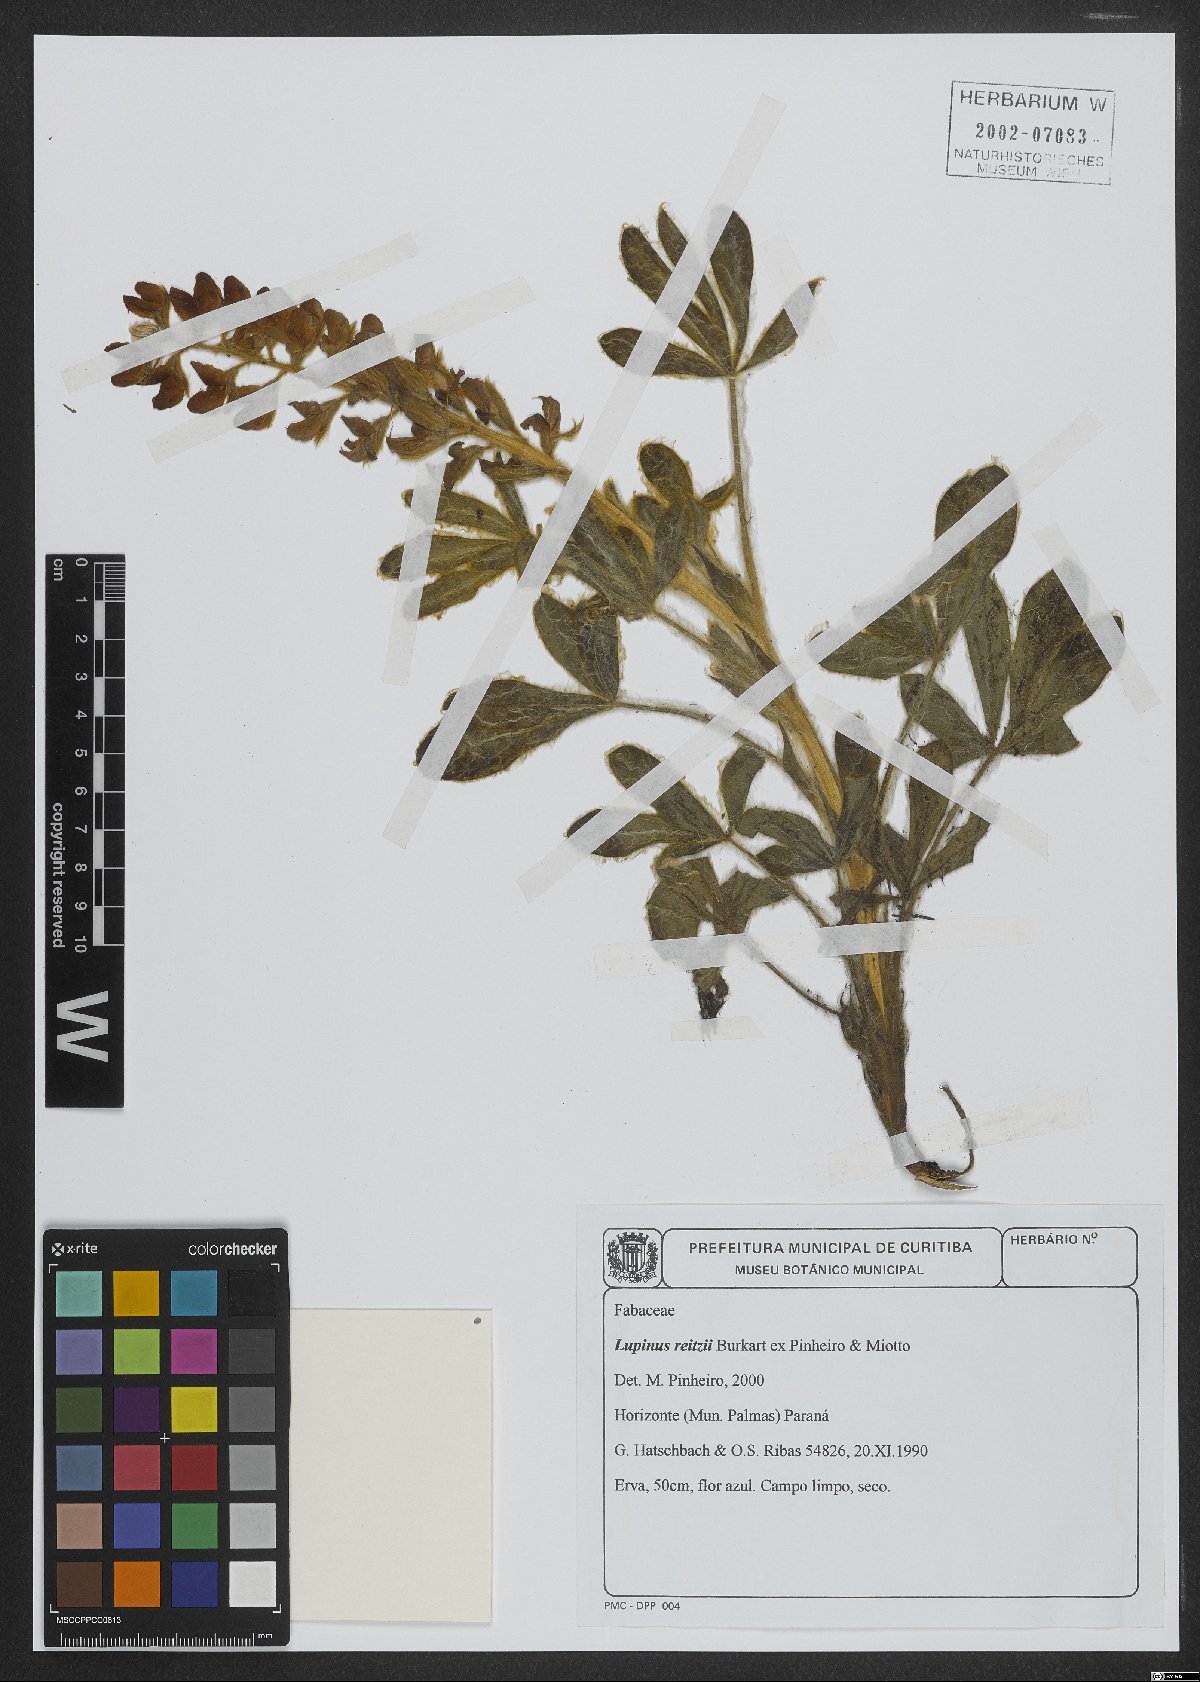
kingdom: Plantae
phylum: Tracheophyta
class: Magnoliopsida
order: Fabales
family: Fabaceae
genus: Lupinus
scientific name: Lupinus reitzii
